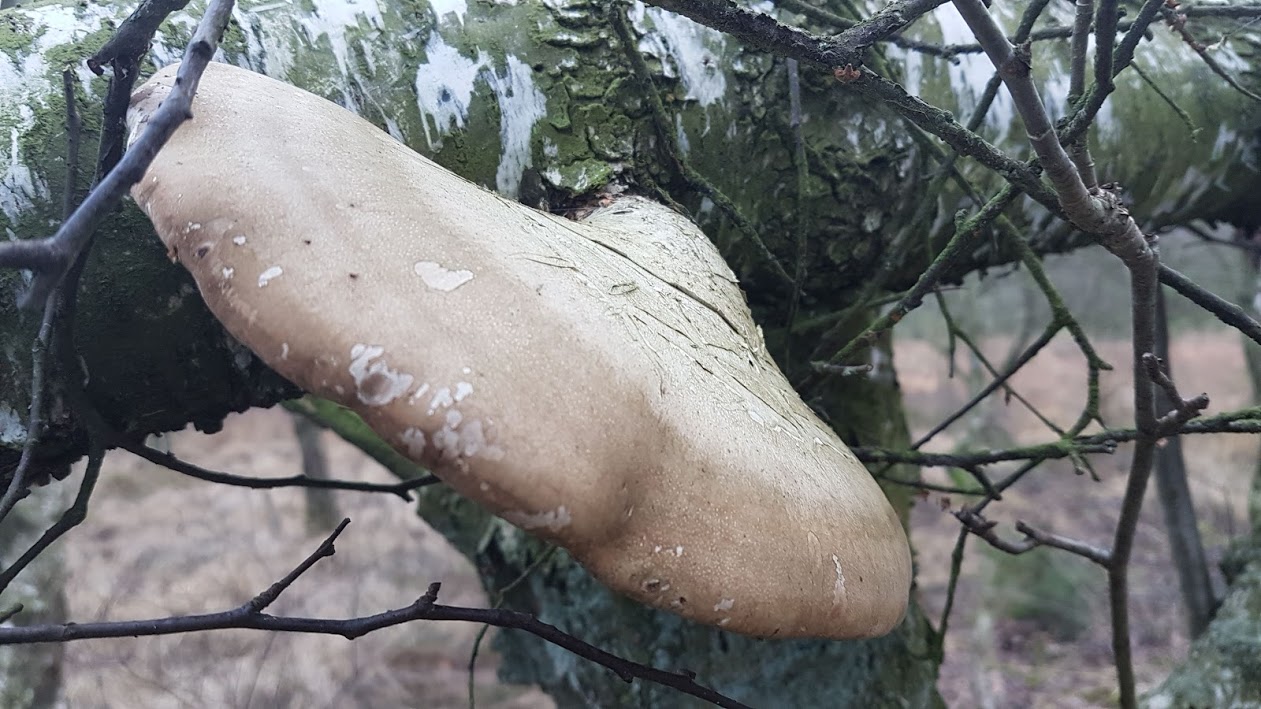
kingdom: Fungi
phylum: Basidiomycota
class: Agaricomycetes
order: Polyporales
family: Fomitopsidaceae
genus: Fomitopsis
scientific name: Fomitopsis betulina
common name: birkeporesvamp
